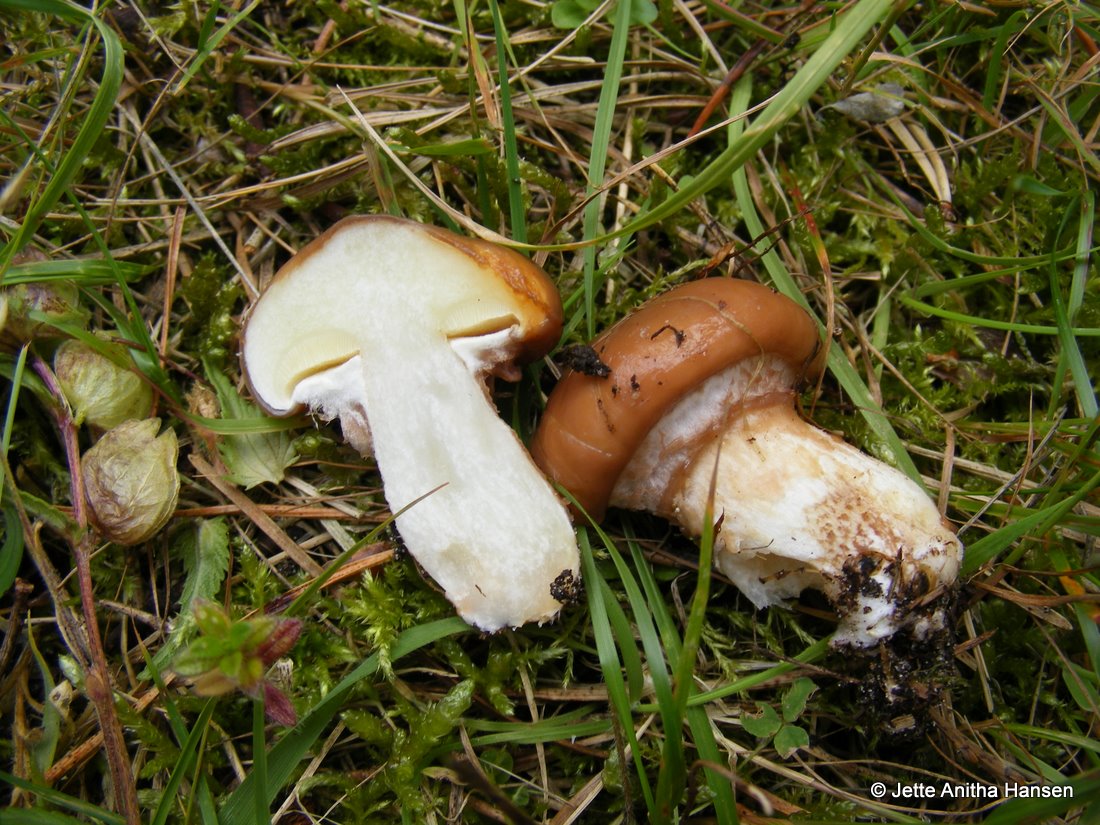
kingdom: Fungi
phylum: Basidiomycota
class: Agaricomycetes
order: Boletales
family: Suillaceae
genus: Suillus
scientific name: Suillus luteus
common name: brungul slimrørhat
